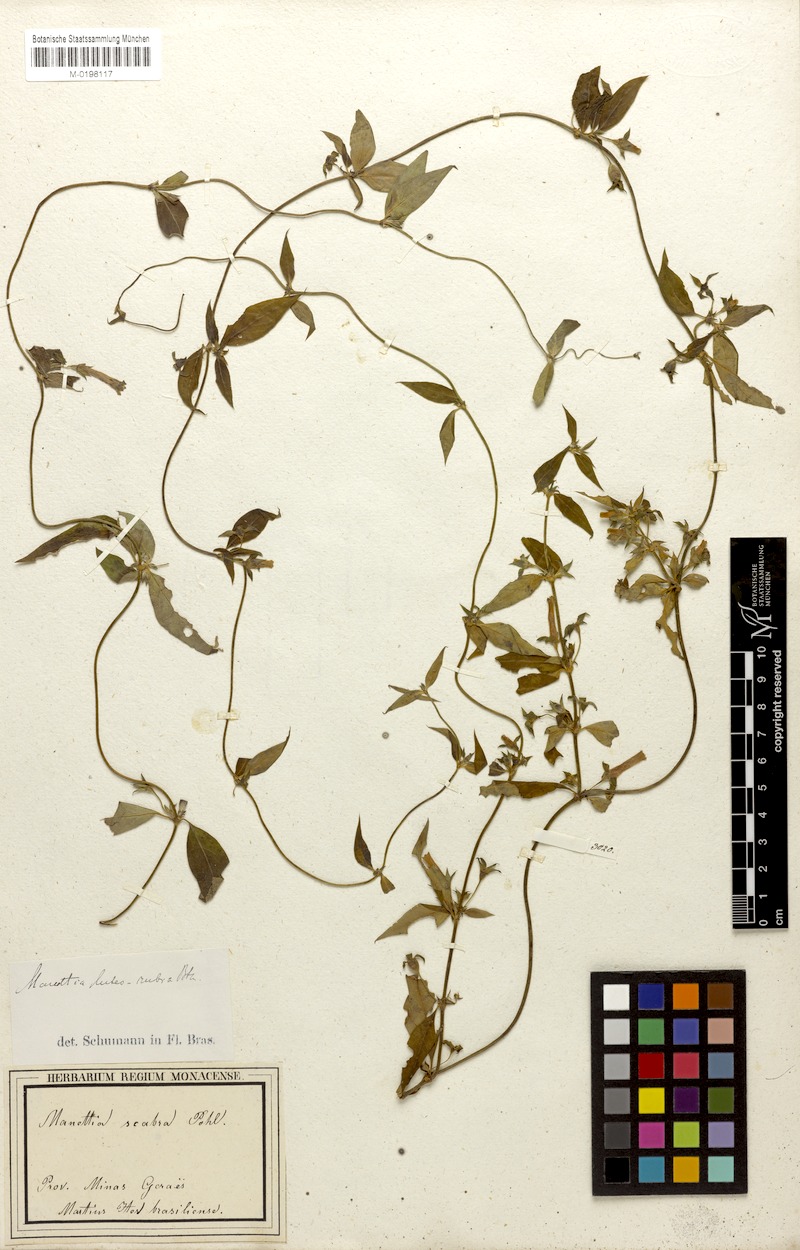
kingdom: Plantae
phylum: Tracheophyta
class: Magnoliopsida
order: Gentianales
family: Rubiaceae
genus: Manettia
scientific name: Manettia luteorubra
